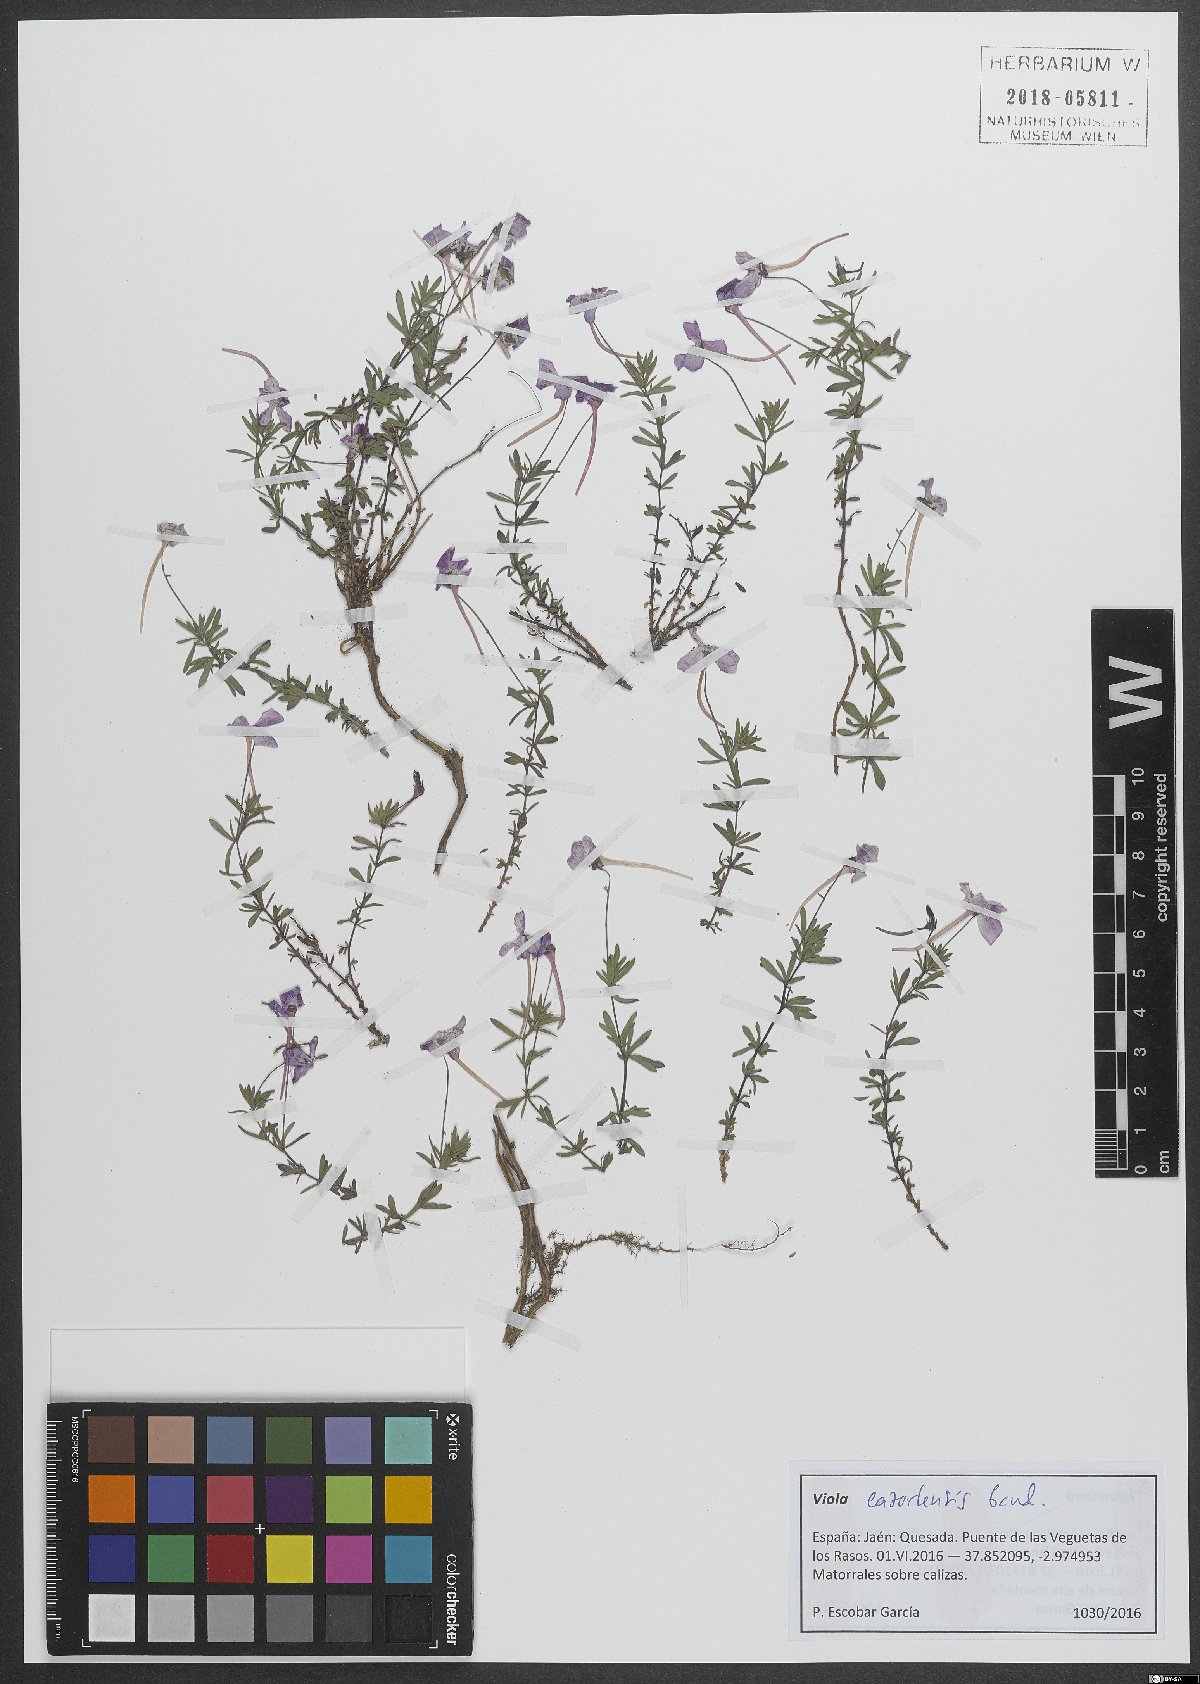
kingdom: Plantae
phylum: Tracheophyta
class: Magnoliopsida
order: Malpighiales
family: Violaceae
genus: Viola
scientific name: Viola cazorlensis
